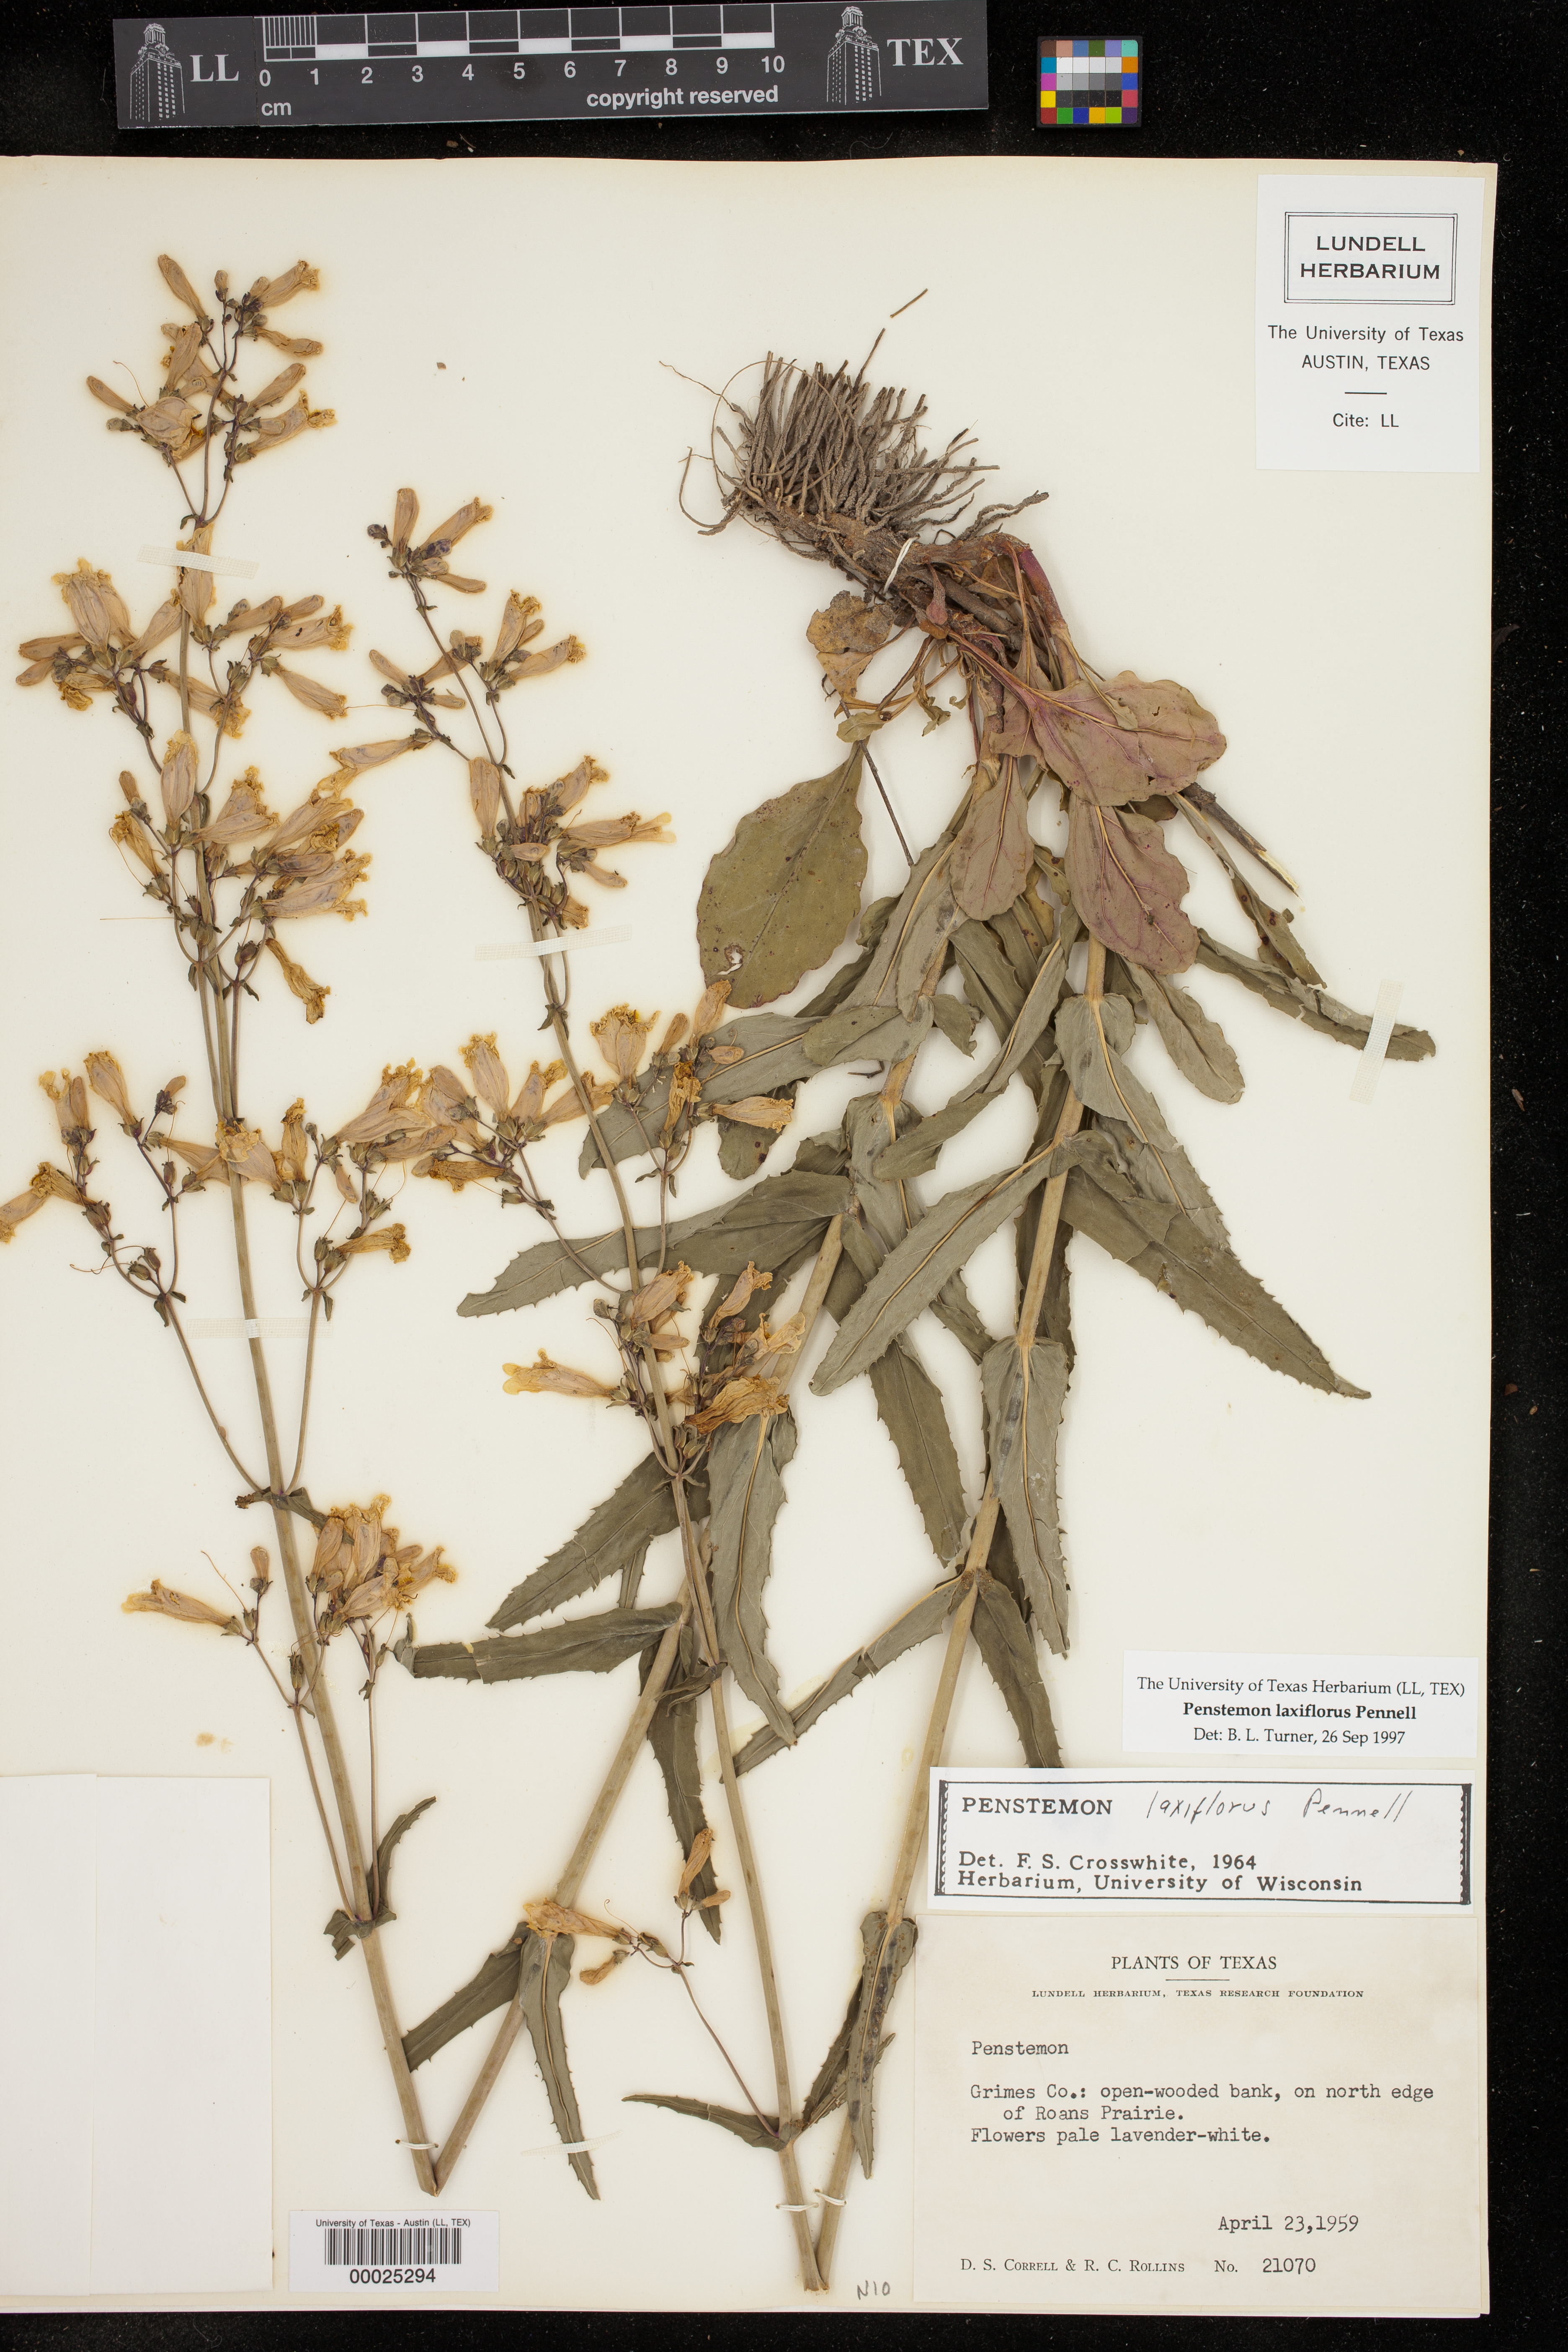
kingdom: Plantae
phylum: Tracheophyta
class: Magnoliopsida
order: Lamiales
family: Plantaginaceae
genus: Penstemon
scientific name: Penstemon laxiflorus
